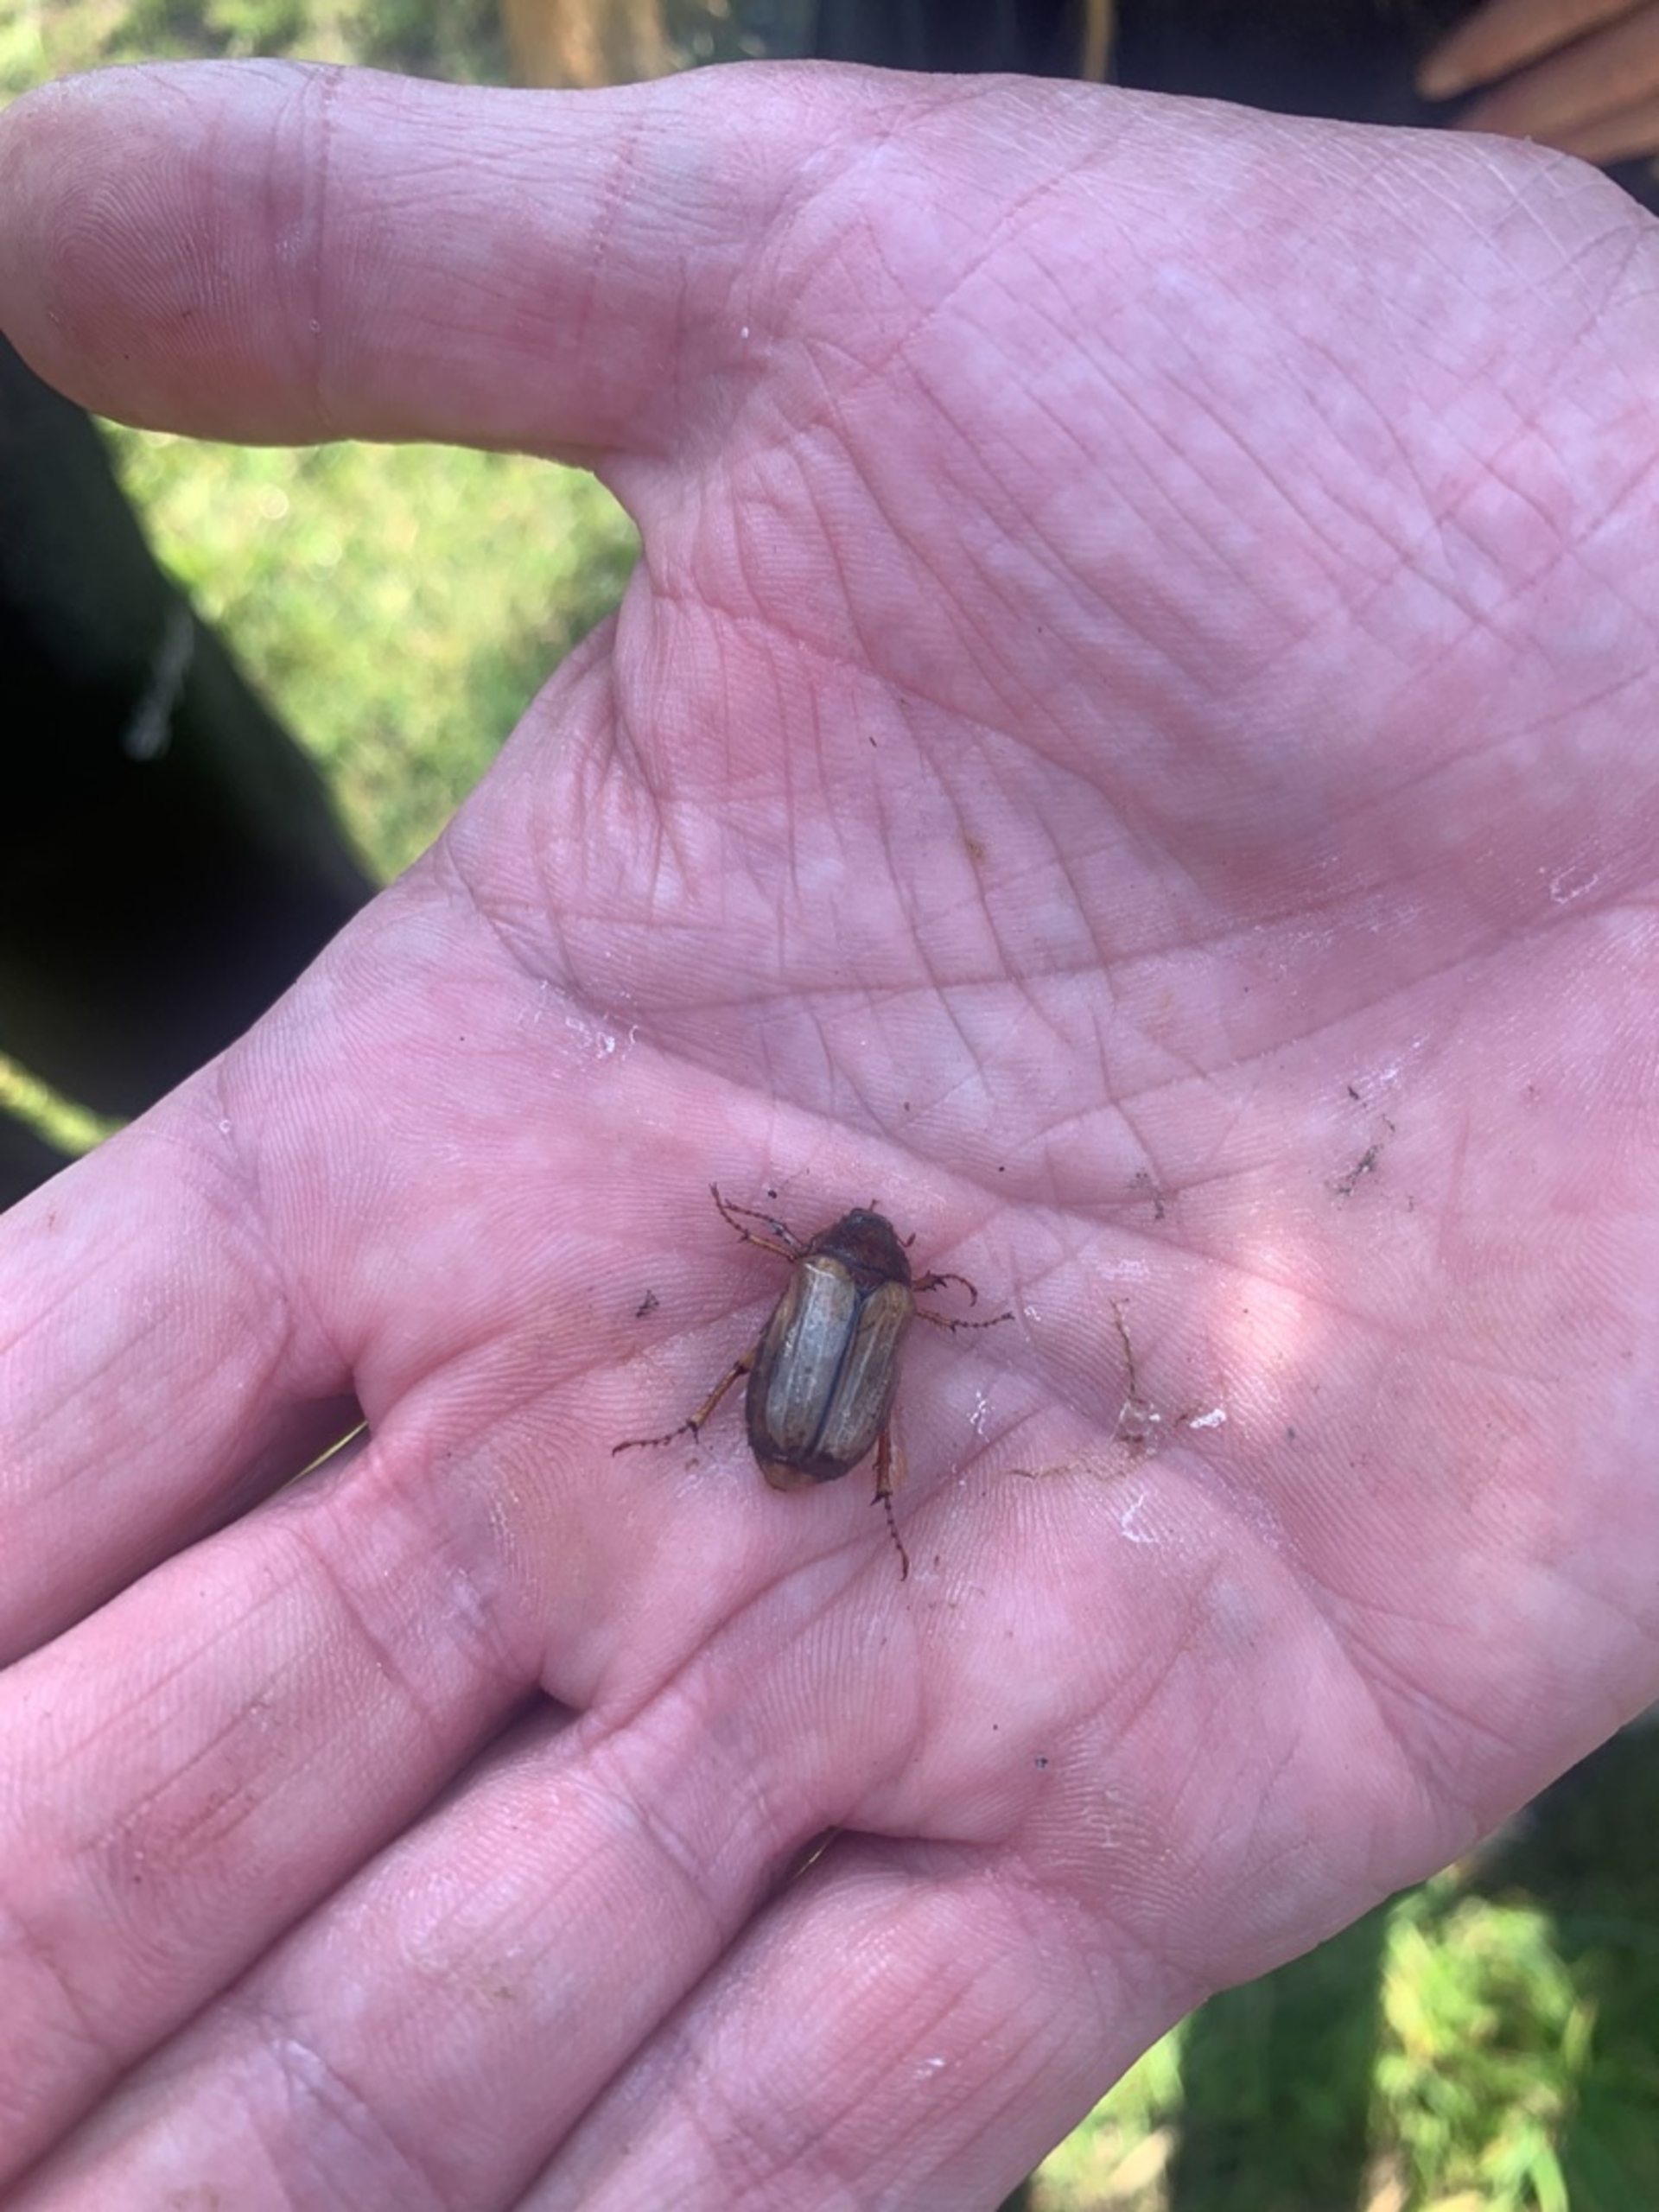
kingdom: Animalia
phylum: Arthropoda
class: Insecta
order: Coleoptera
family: Scarabaeidae
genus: Amphimallon
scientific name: Amphimallon solstitiale
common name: Sankthansoldenborre
